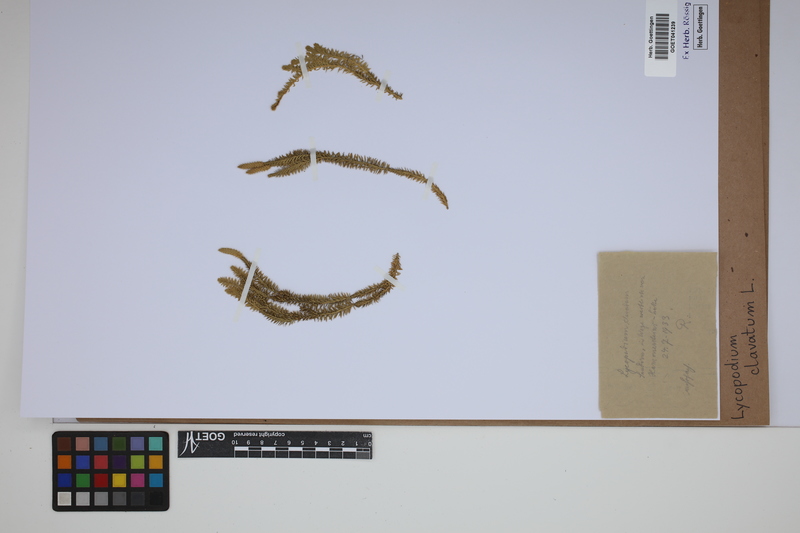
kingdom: Plantae
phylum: Tracheophyta
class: Lycopodiopsida
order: Lycopodiales
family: Lycopodiaceae
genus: Lycopodium
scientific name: Lycopodium clavatum
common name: Stag's-horn clubmoss
